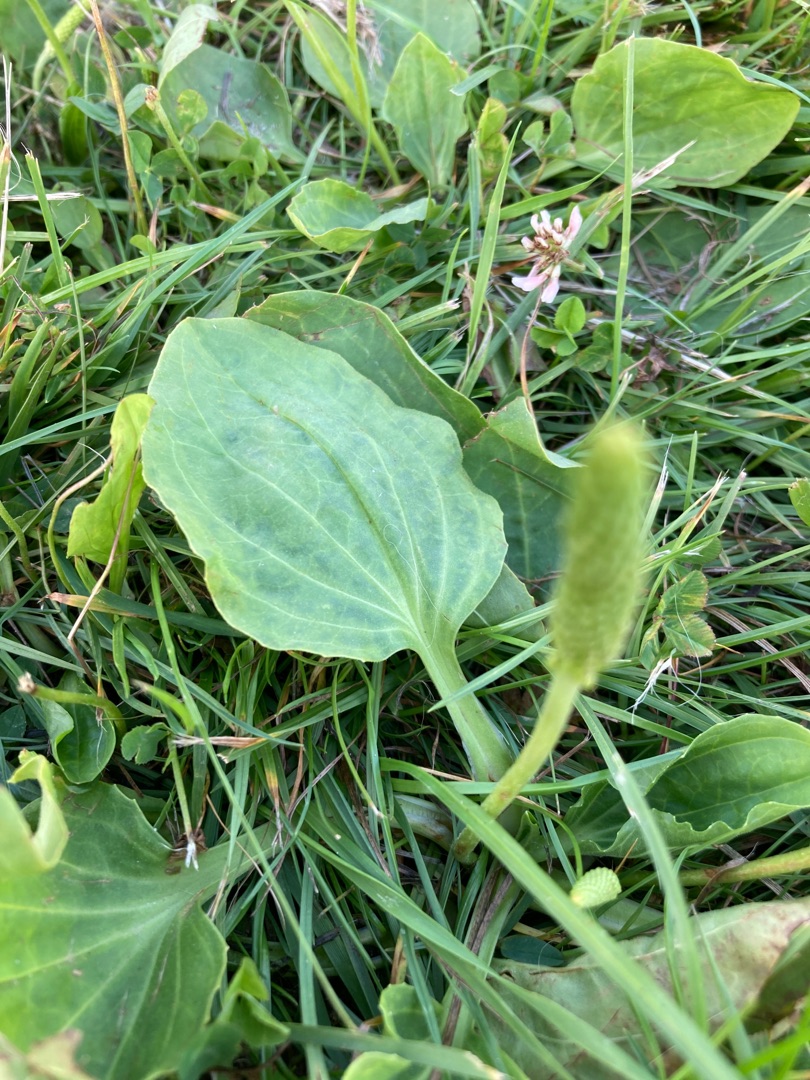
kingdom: Plantae
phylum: Tracheophyta
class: Magnoliopsida
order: Lamiales
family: Plantaginaceae
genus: Plantago
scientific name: Plantago major
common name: Glat vejbred
